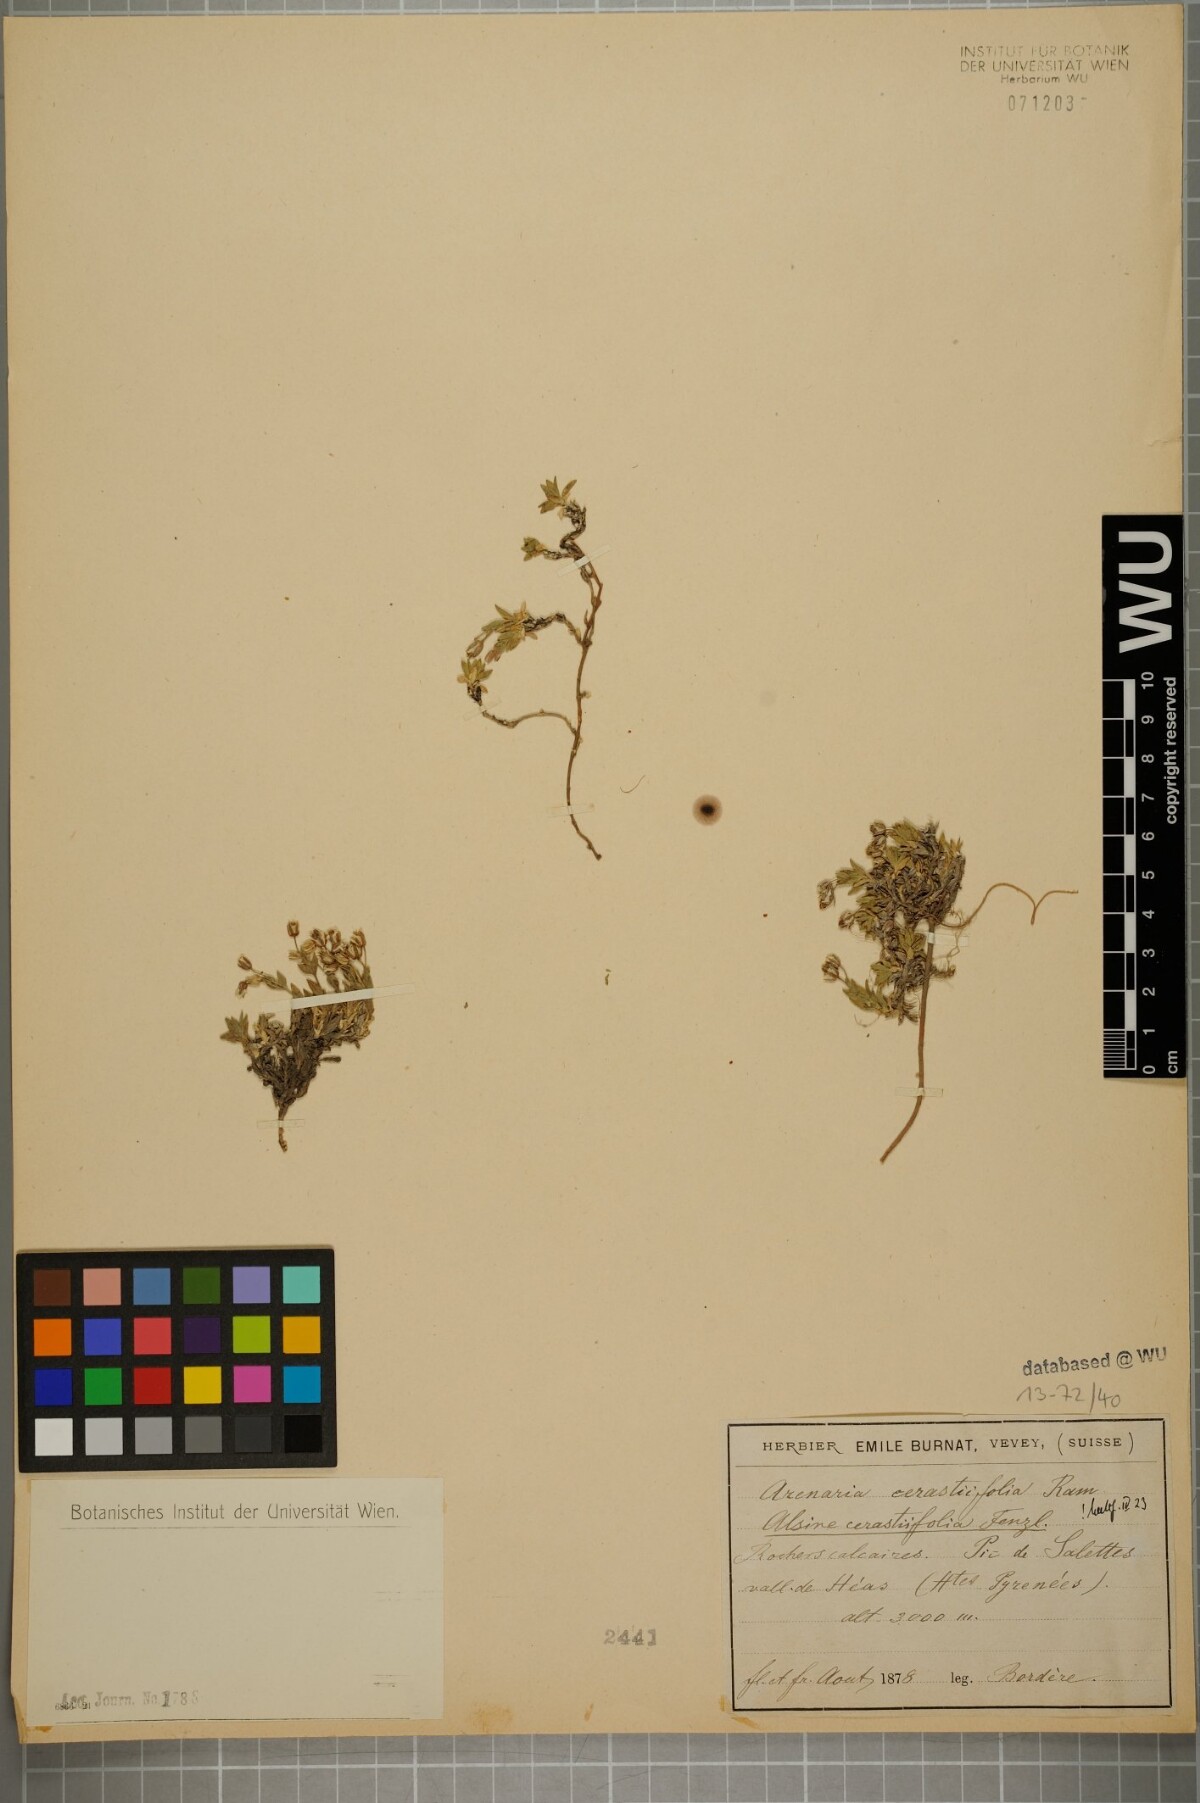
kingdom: Plantae
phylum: Tracheophyta
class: Magnoliopsida
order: Caryophyllales
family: Caryophyllaceae
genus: Facchinia
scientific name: Facchinia cerastiifolia
